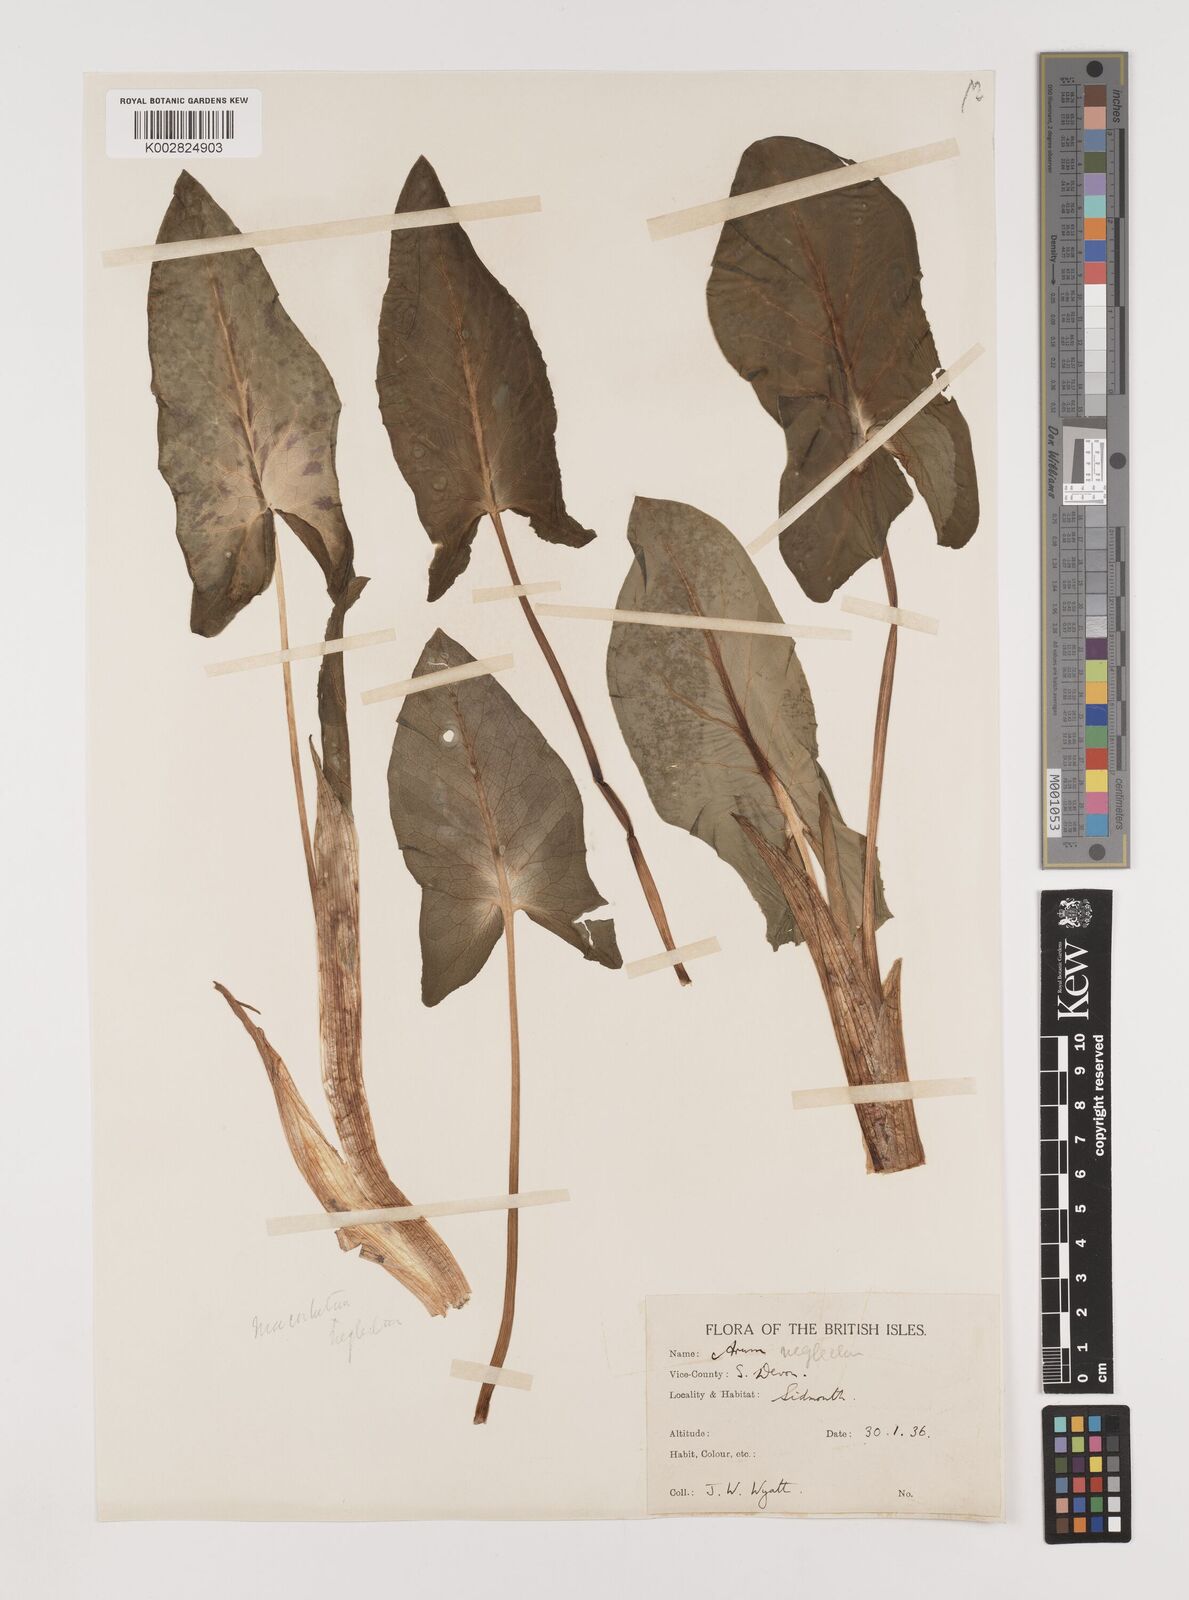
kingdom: Plantae
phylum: Tracheophyta
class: Liliopsida
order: Alismatales
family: Araceae
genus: Arum
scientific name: Arum italicum
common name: Italian lords-and-ladies
